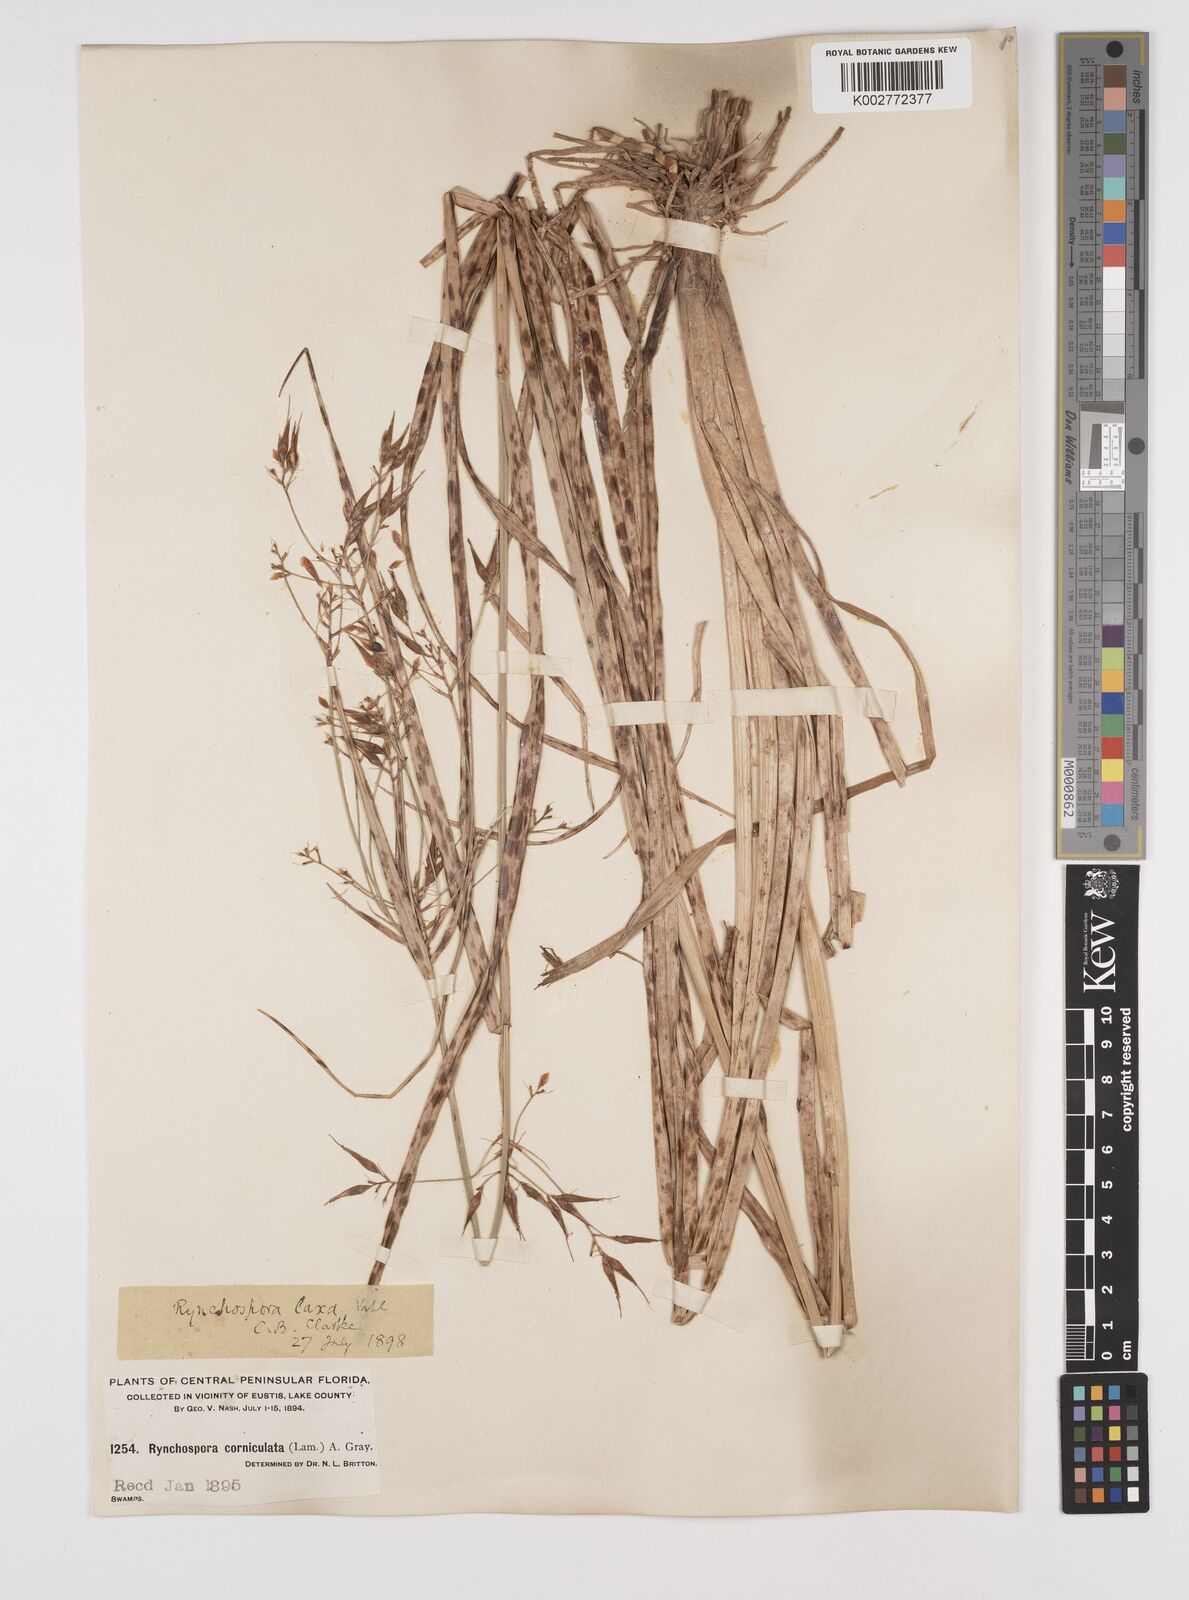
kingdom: Plantae
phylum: Tracheophyta
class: Liliopsida
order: Poales
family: Cyperaceae
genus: Rhynchospora
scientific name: Rhynchospora corniculata
